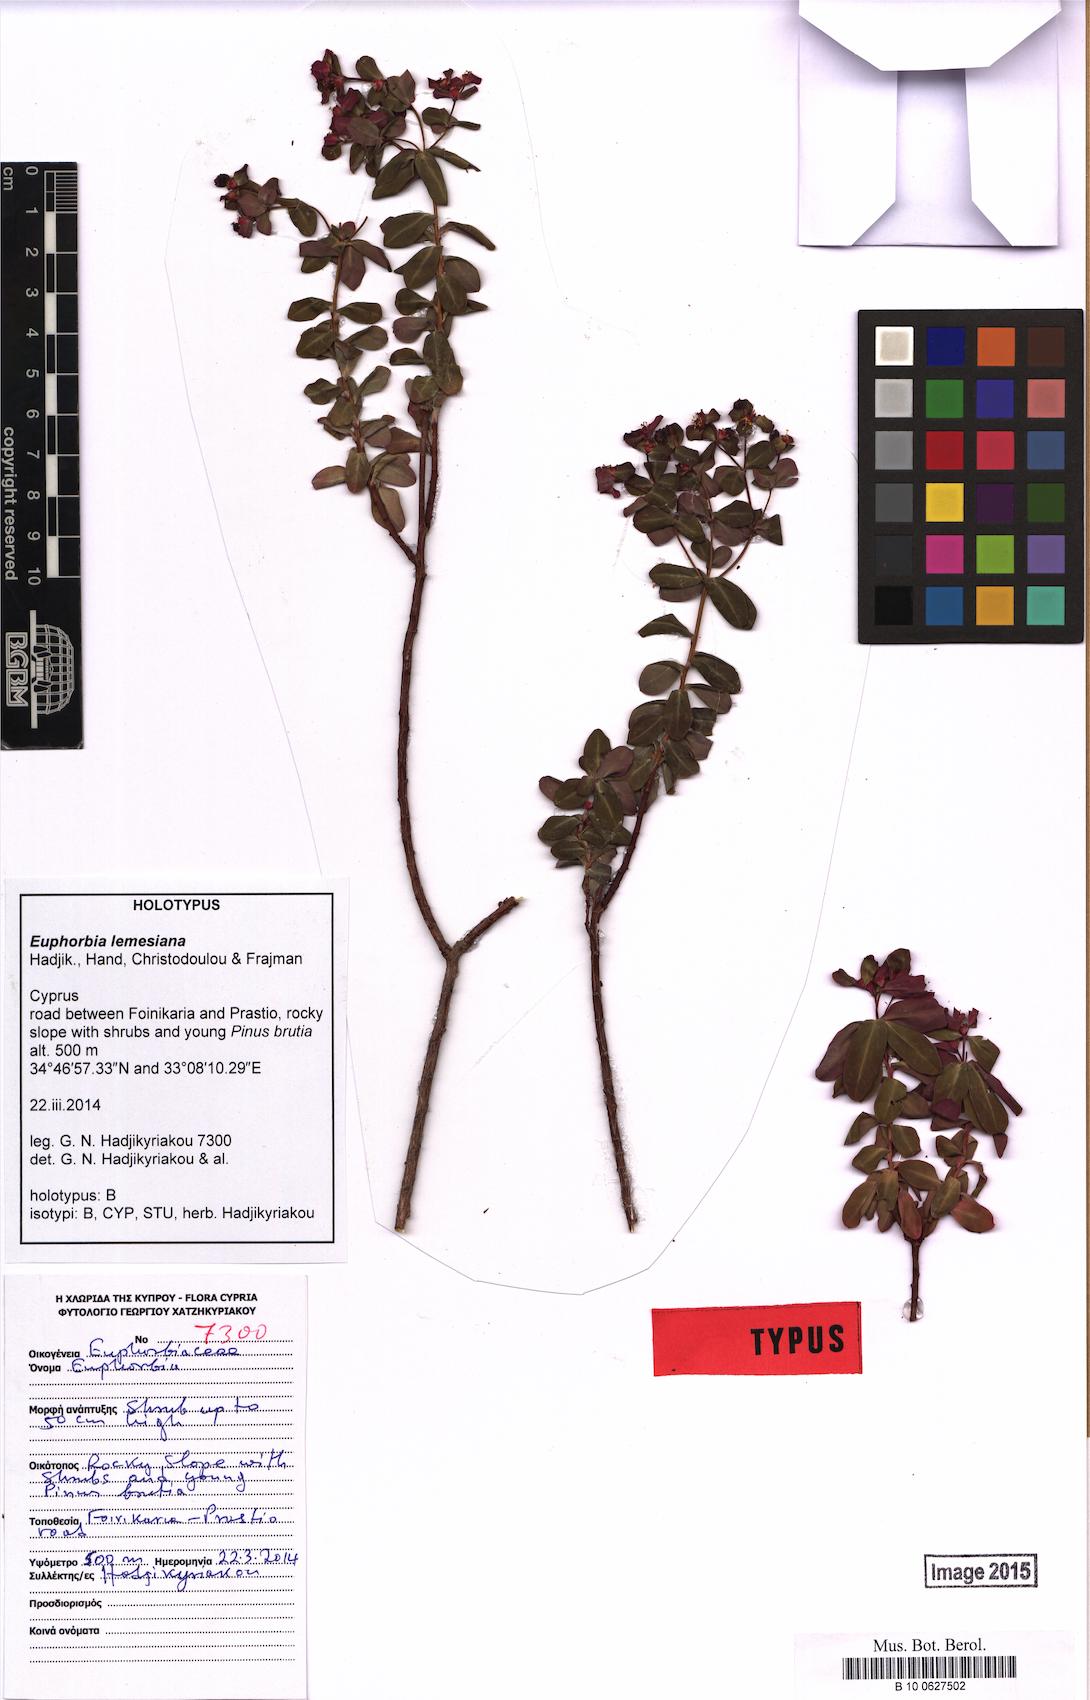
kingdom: Plantae
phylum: Tracheophyta
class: Magnoliopsida
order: Malpighiales
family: Euphorbiaceae
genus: Euphorbia
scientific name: Euphorbia lemesiana
